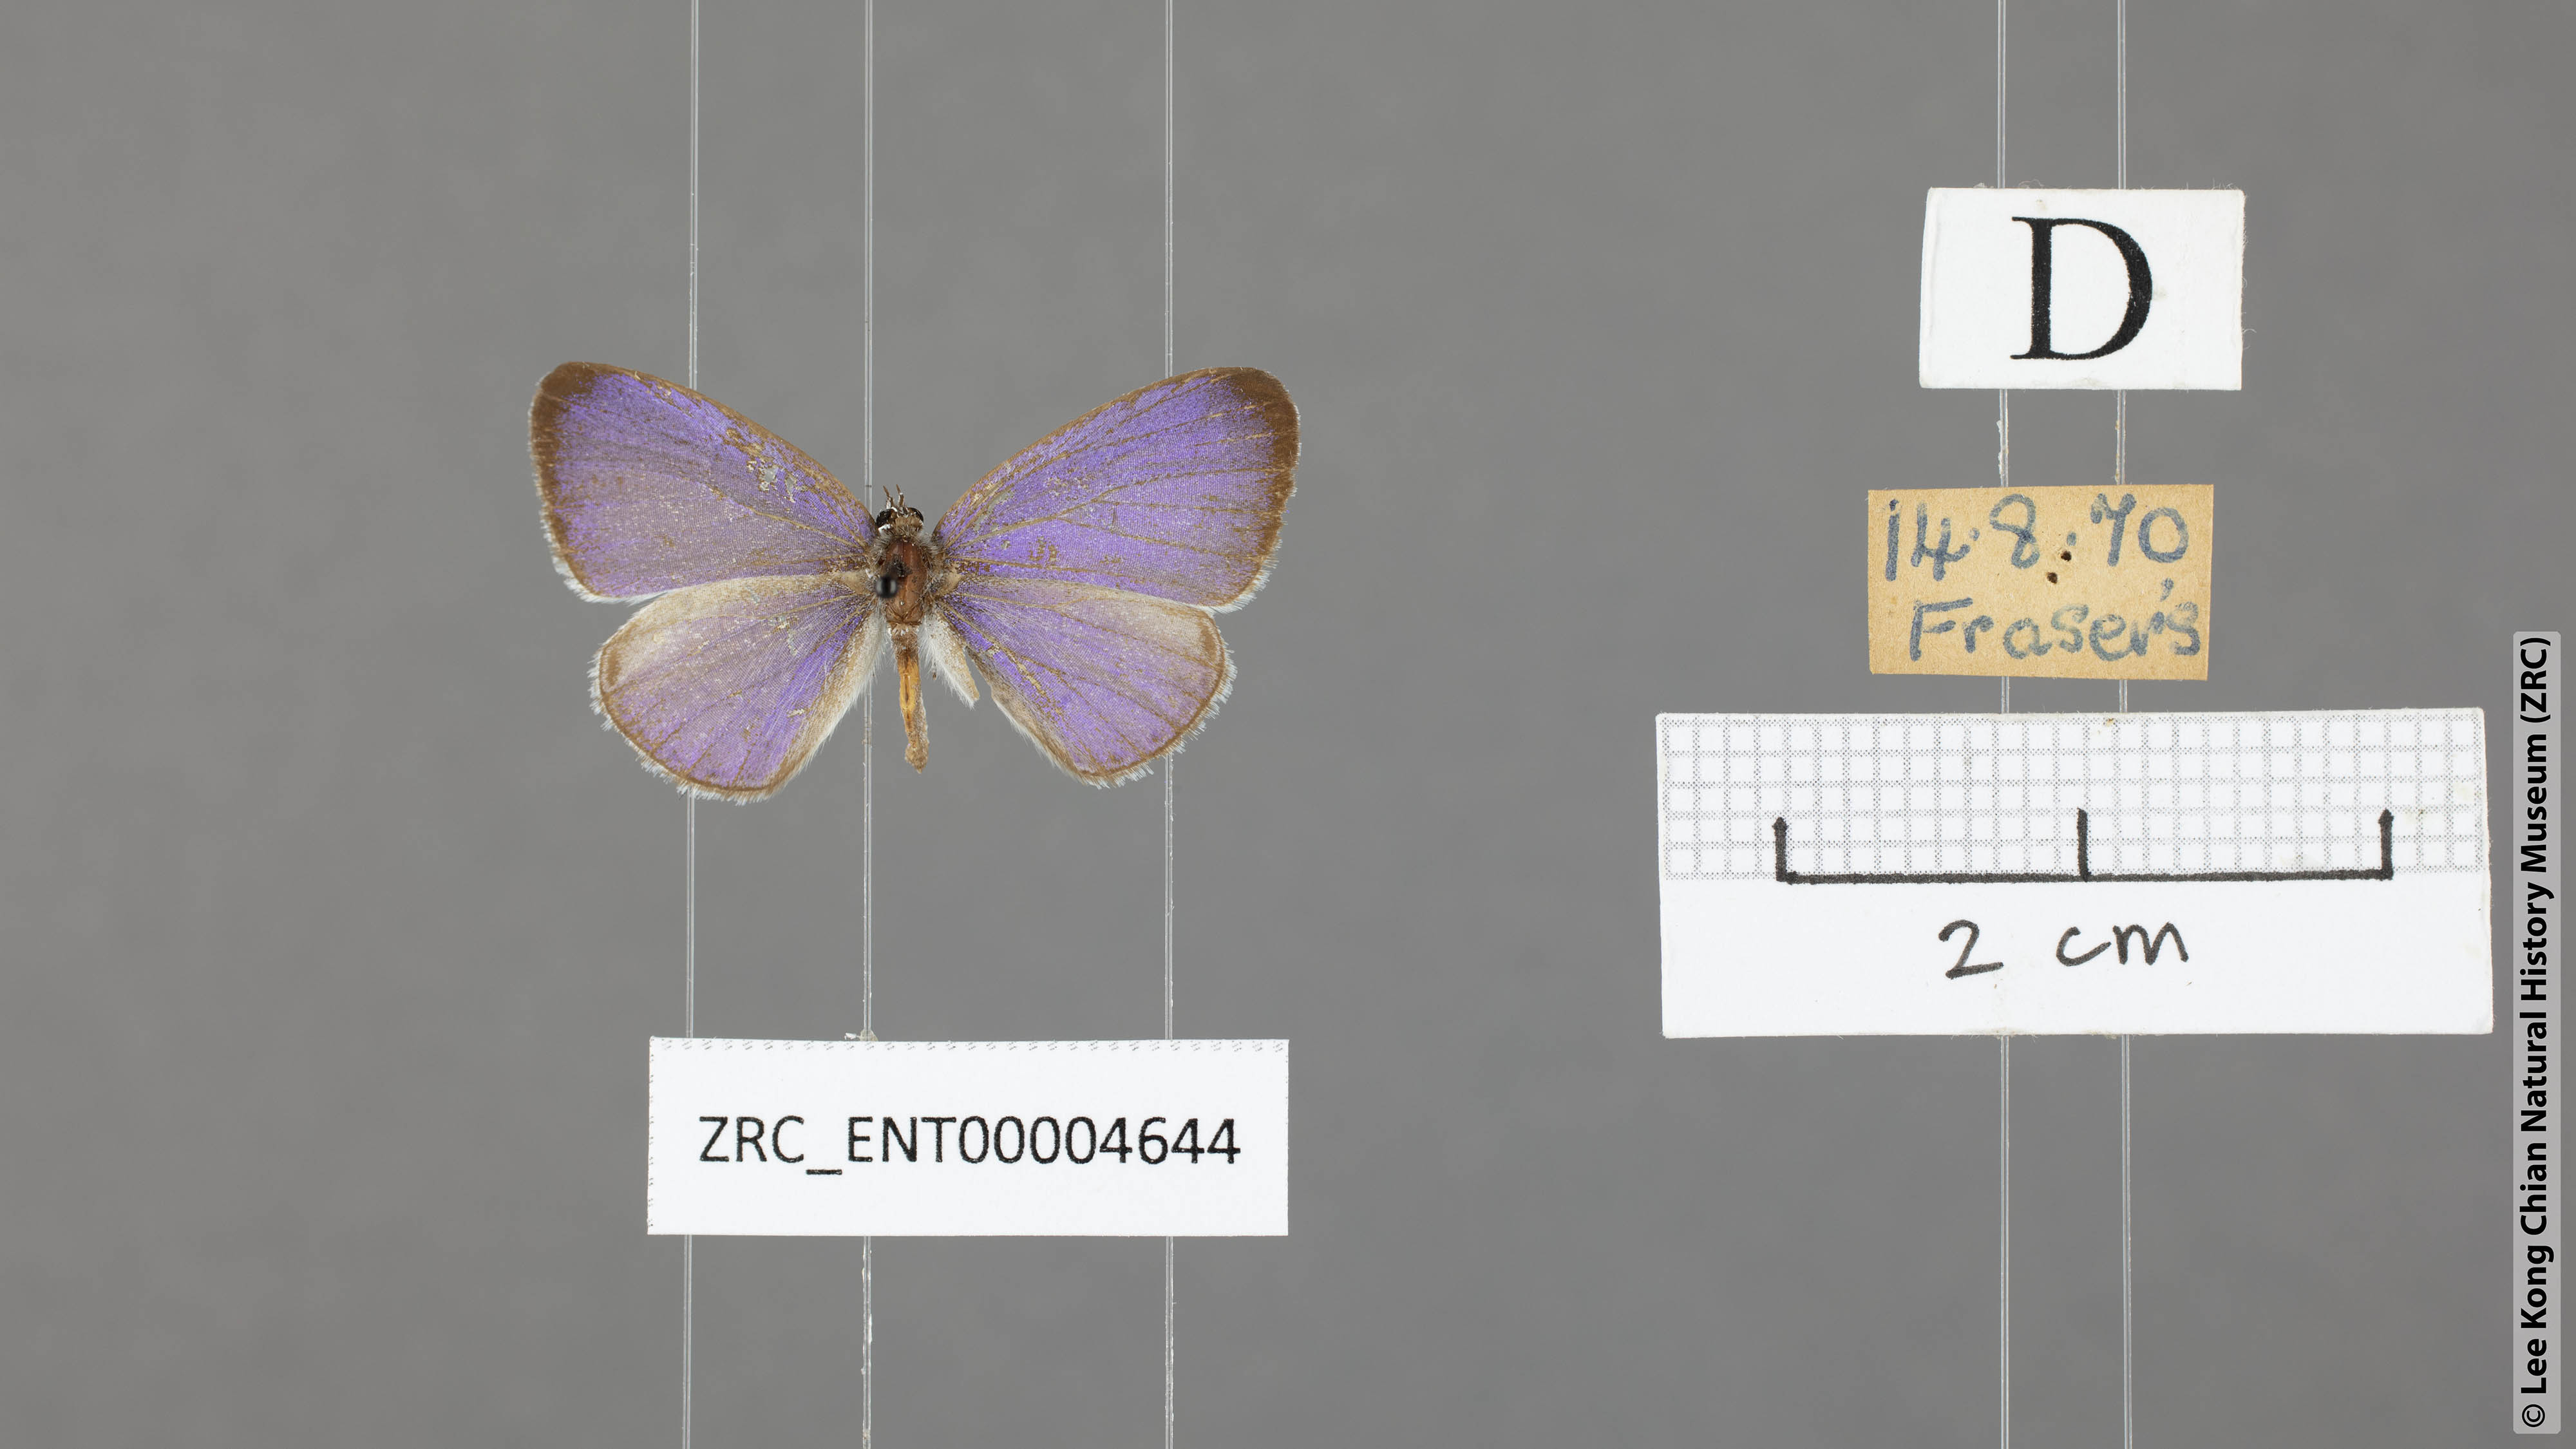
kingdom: Animalia
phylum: Arthropoda
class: Insecta
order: Lepidoptera
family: Lycaenidae
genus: Udara
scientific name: Udara
